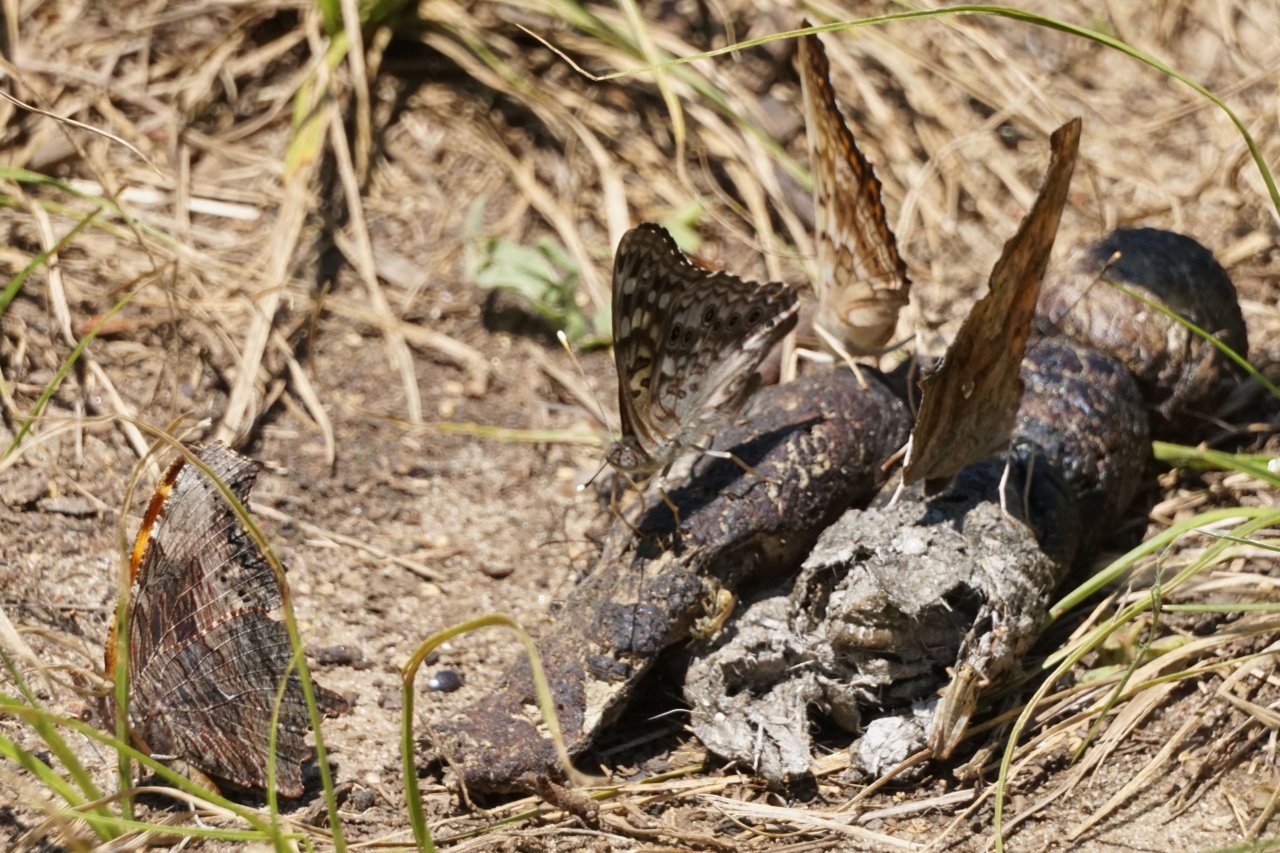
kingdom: Animalia
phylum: Arthropoda
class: Insecta
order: Lepidoptera
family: Nymphalidae
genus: Polygonia
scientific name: Polygonia progne
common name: Gray Comma
